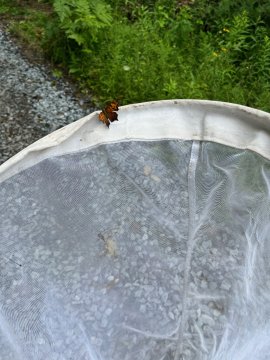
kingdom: Animalia
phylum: Arthropoda
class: Insecta
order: Lepidoptera
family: Nymphalidae
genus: Polygonia
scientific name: Polygonia comma
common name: Eastern Comma
